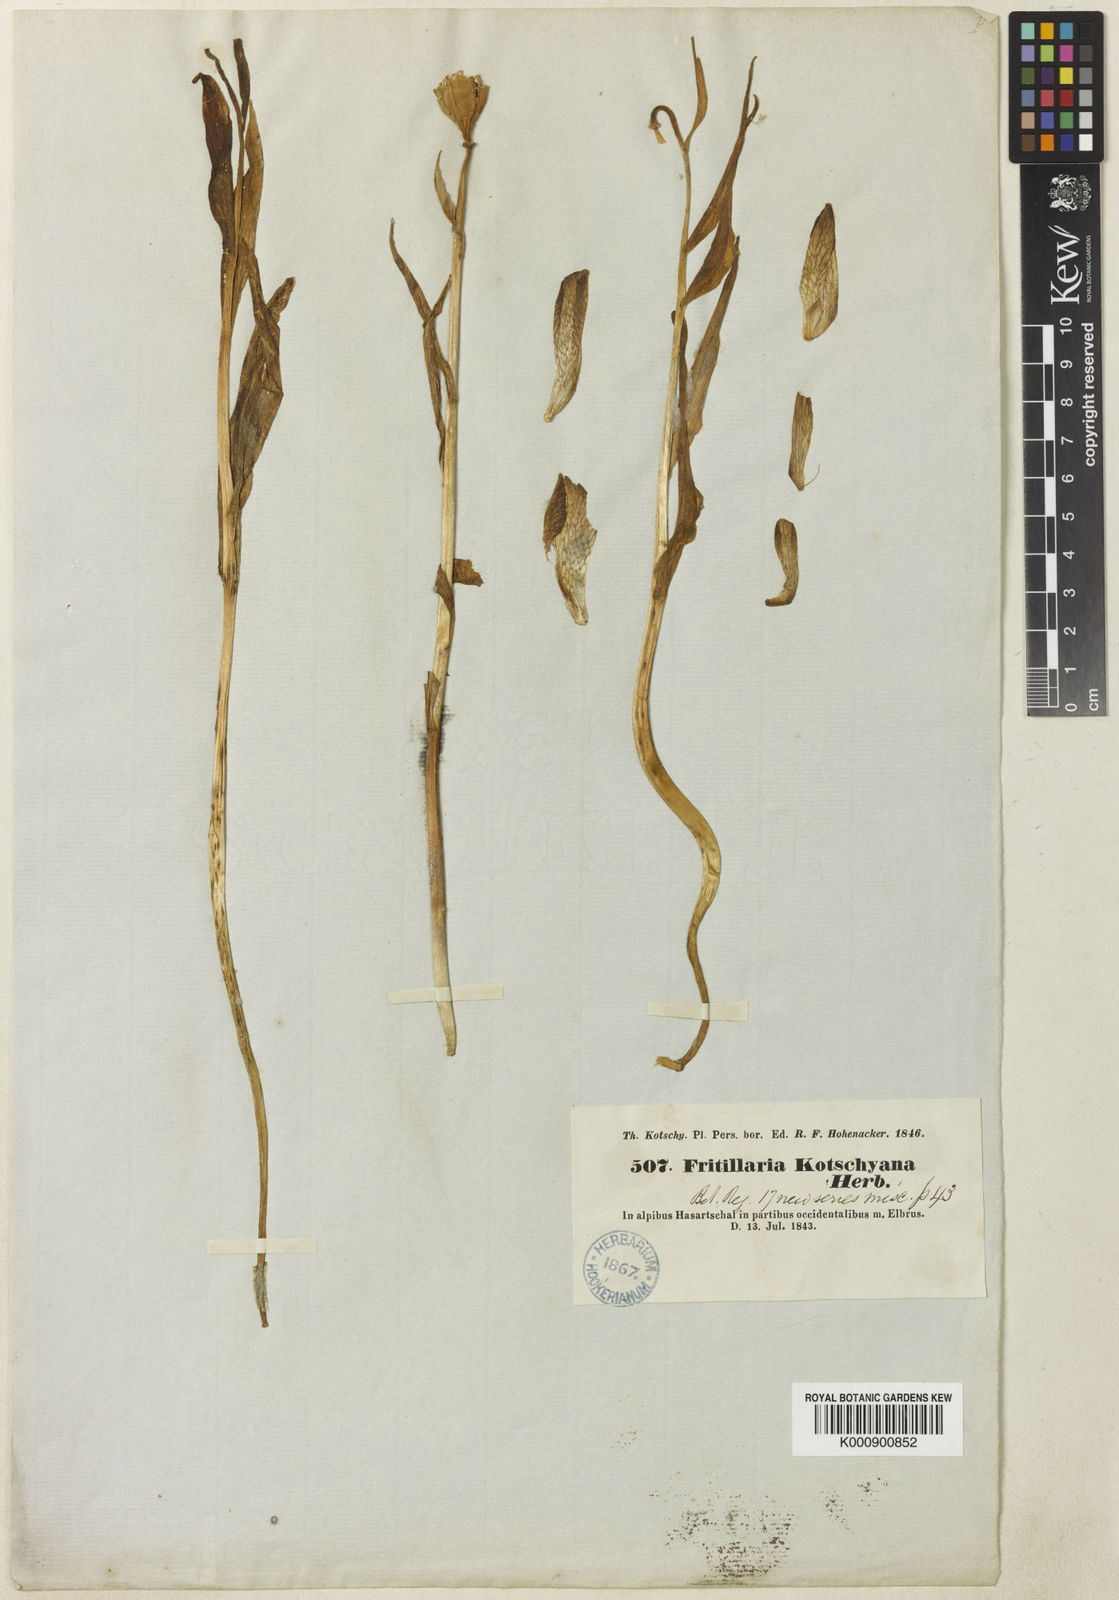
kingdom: Plantae
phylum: Tracheophyta
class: Liliopsida
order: Liliales
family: Liliaceae
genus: Fritillaria
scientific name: Fritillaria kotschyana
